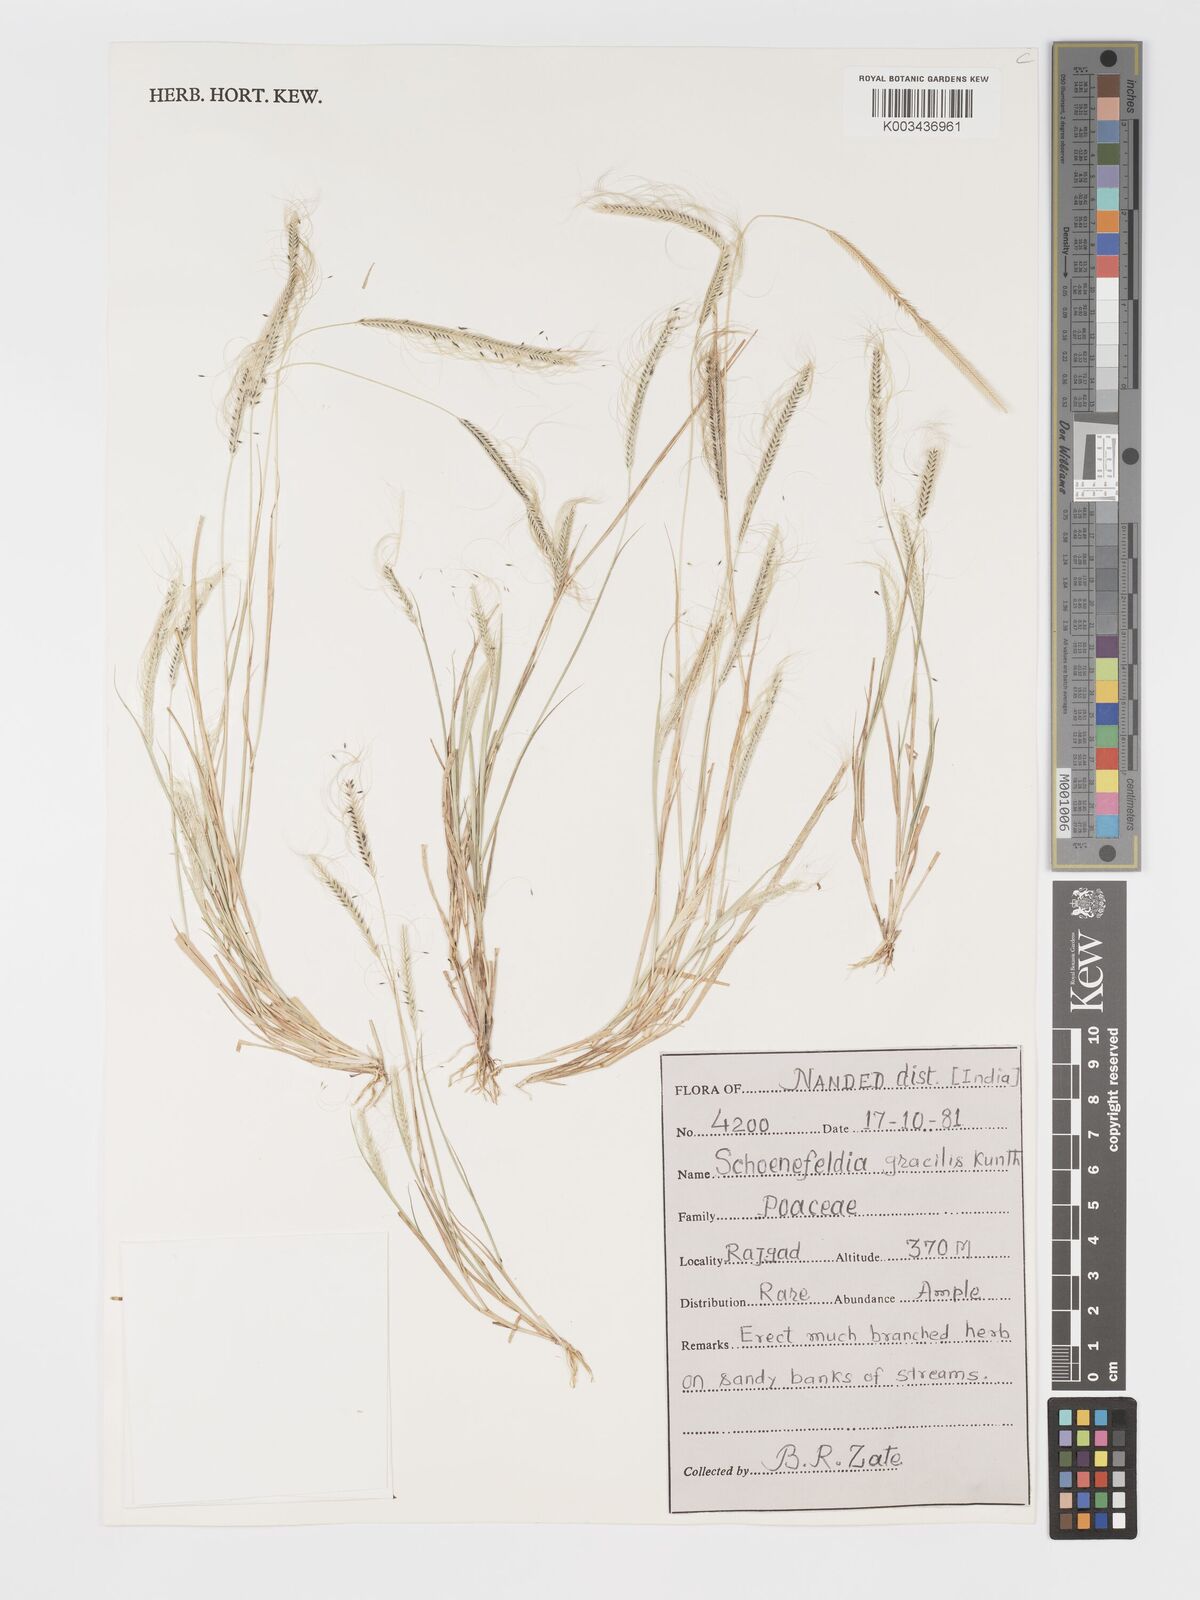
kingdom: Plantae
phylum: Tracheophyta
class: Liliopsida
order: Poales
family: Poaceae
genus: Schoenefeldia
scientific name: Schoenefeldia gracilis
